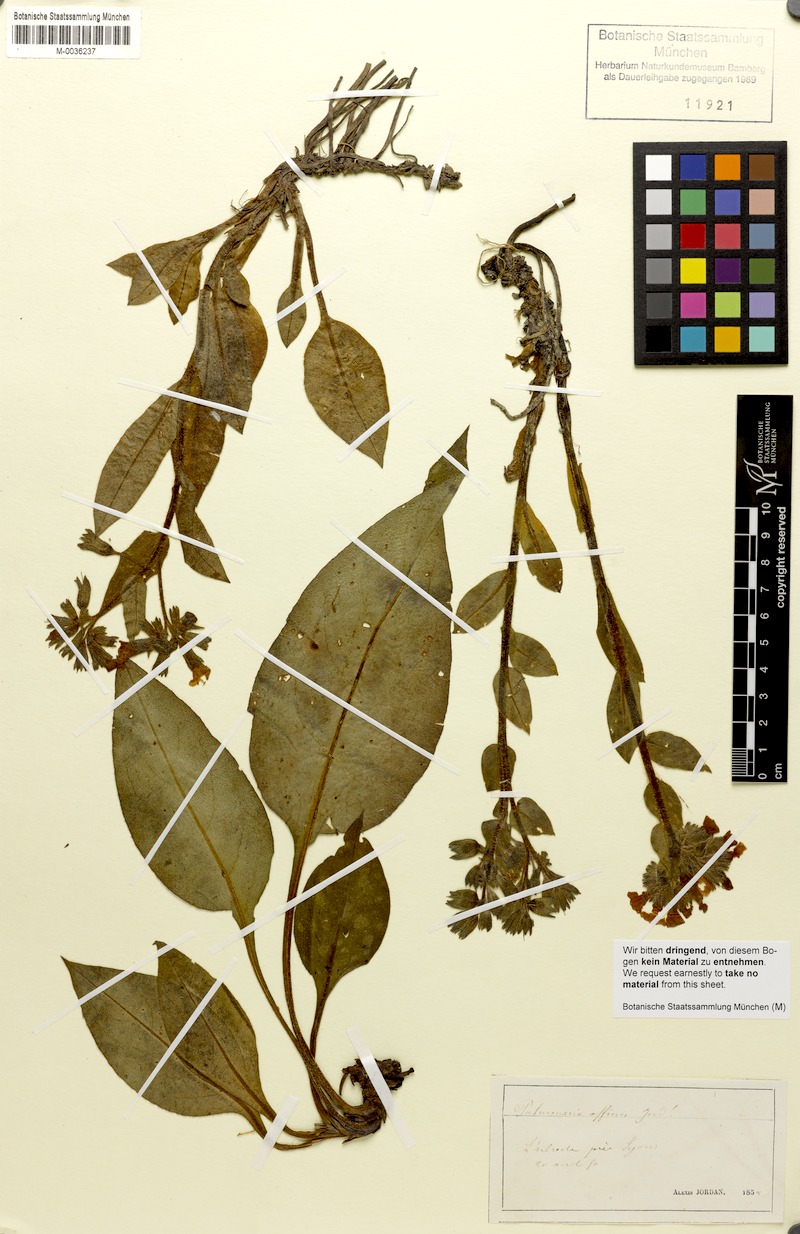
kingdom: Plantae
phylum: Tracheophyta
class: Magnoliopsida
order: Boraginales
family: Boraginaceae
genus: Pulmonaria
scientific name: Pulmonaria affinis
